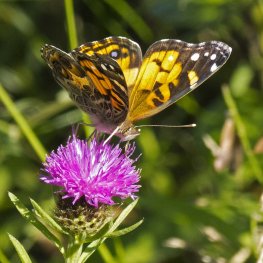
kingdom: Animalia
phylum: Arthropoda
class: Insecta
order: Lepidoptera
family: Nymphalidae
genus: Vanessa
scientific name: Vanessa virginiensis
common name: American Lady
